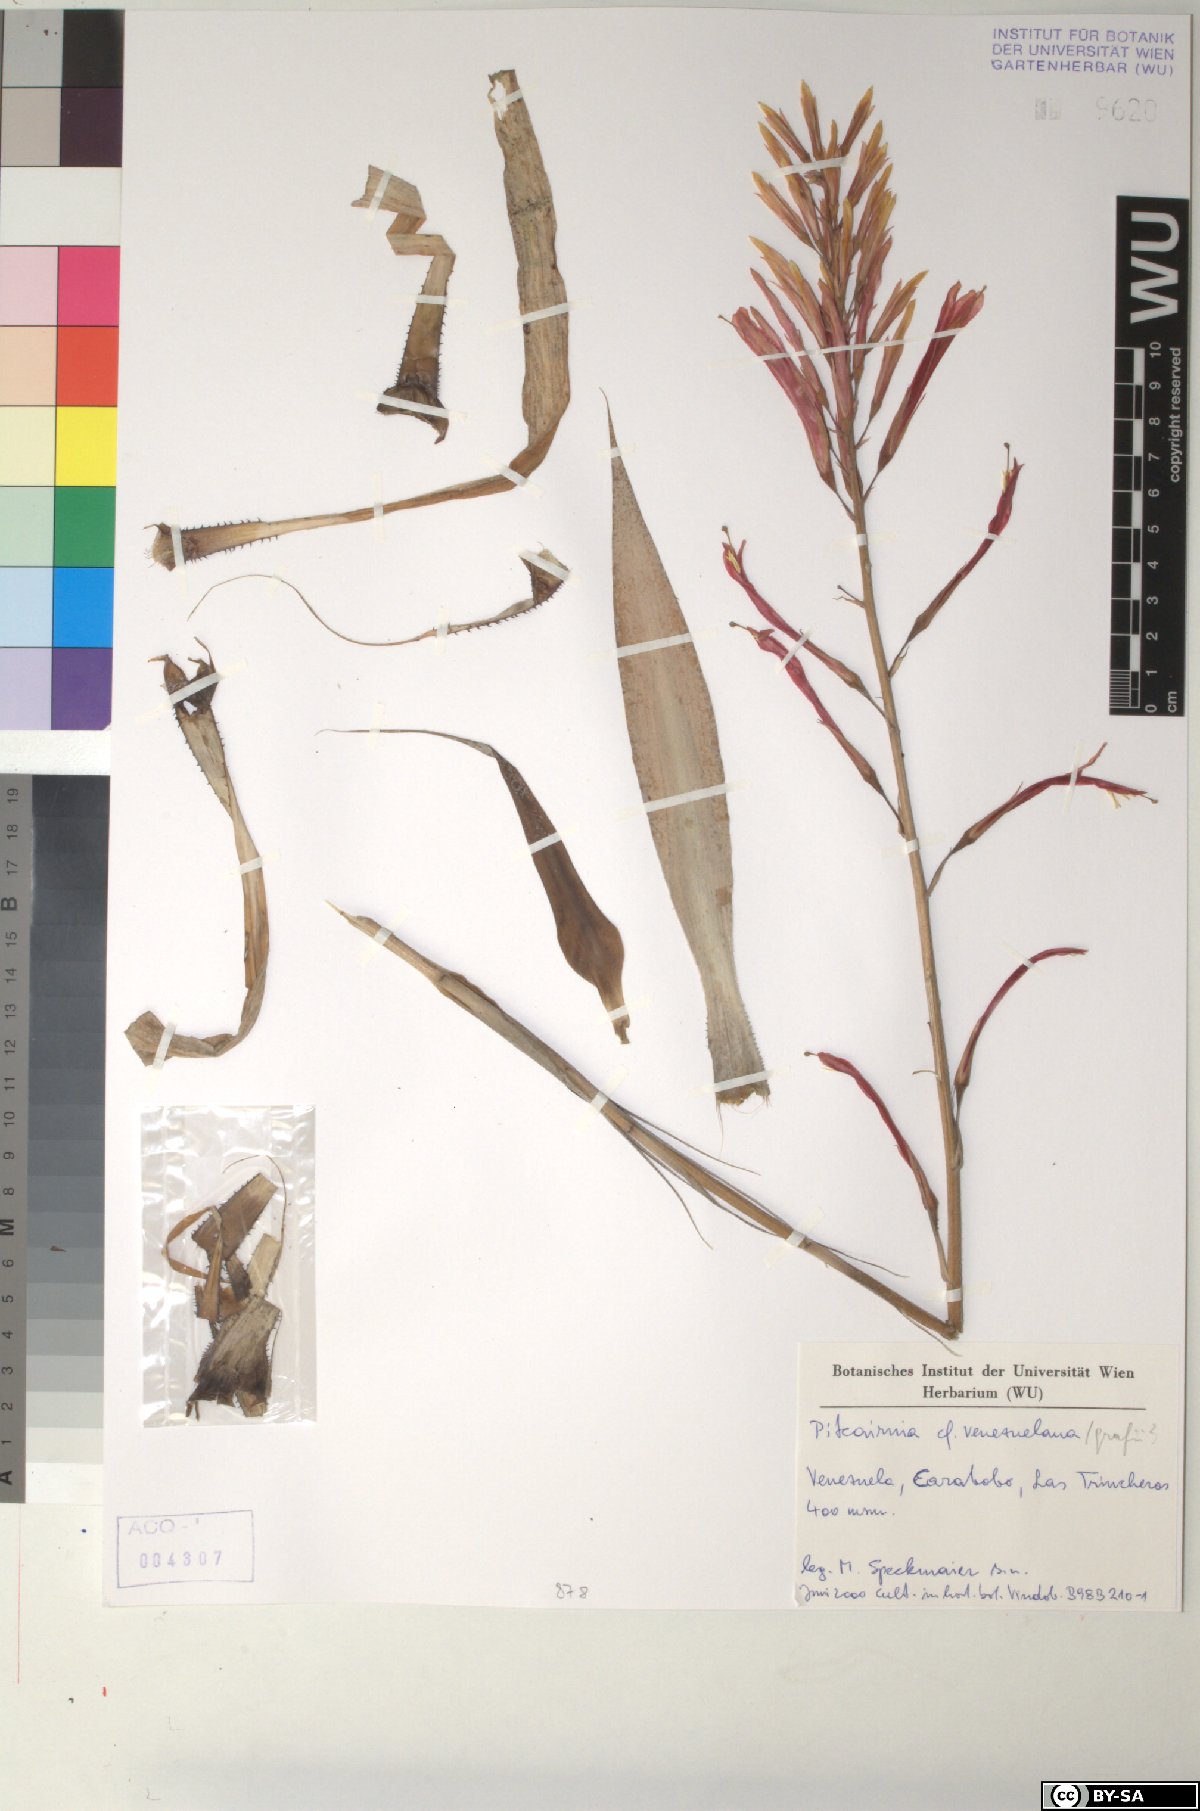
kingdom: Plantae
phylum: Tracheophyta
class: Liliopsida
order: Poales
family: Bromeliaceae
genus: Pitcairnia
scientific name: Pitcairnia venezuelana
